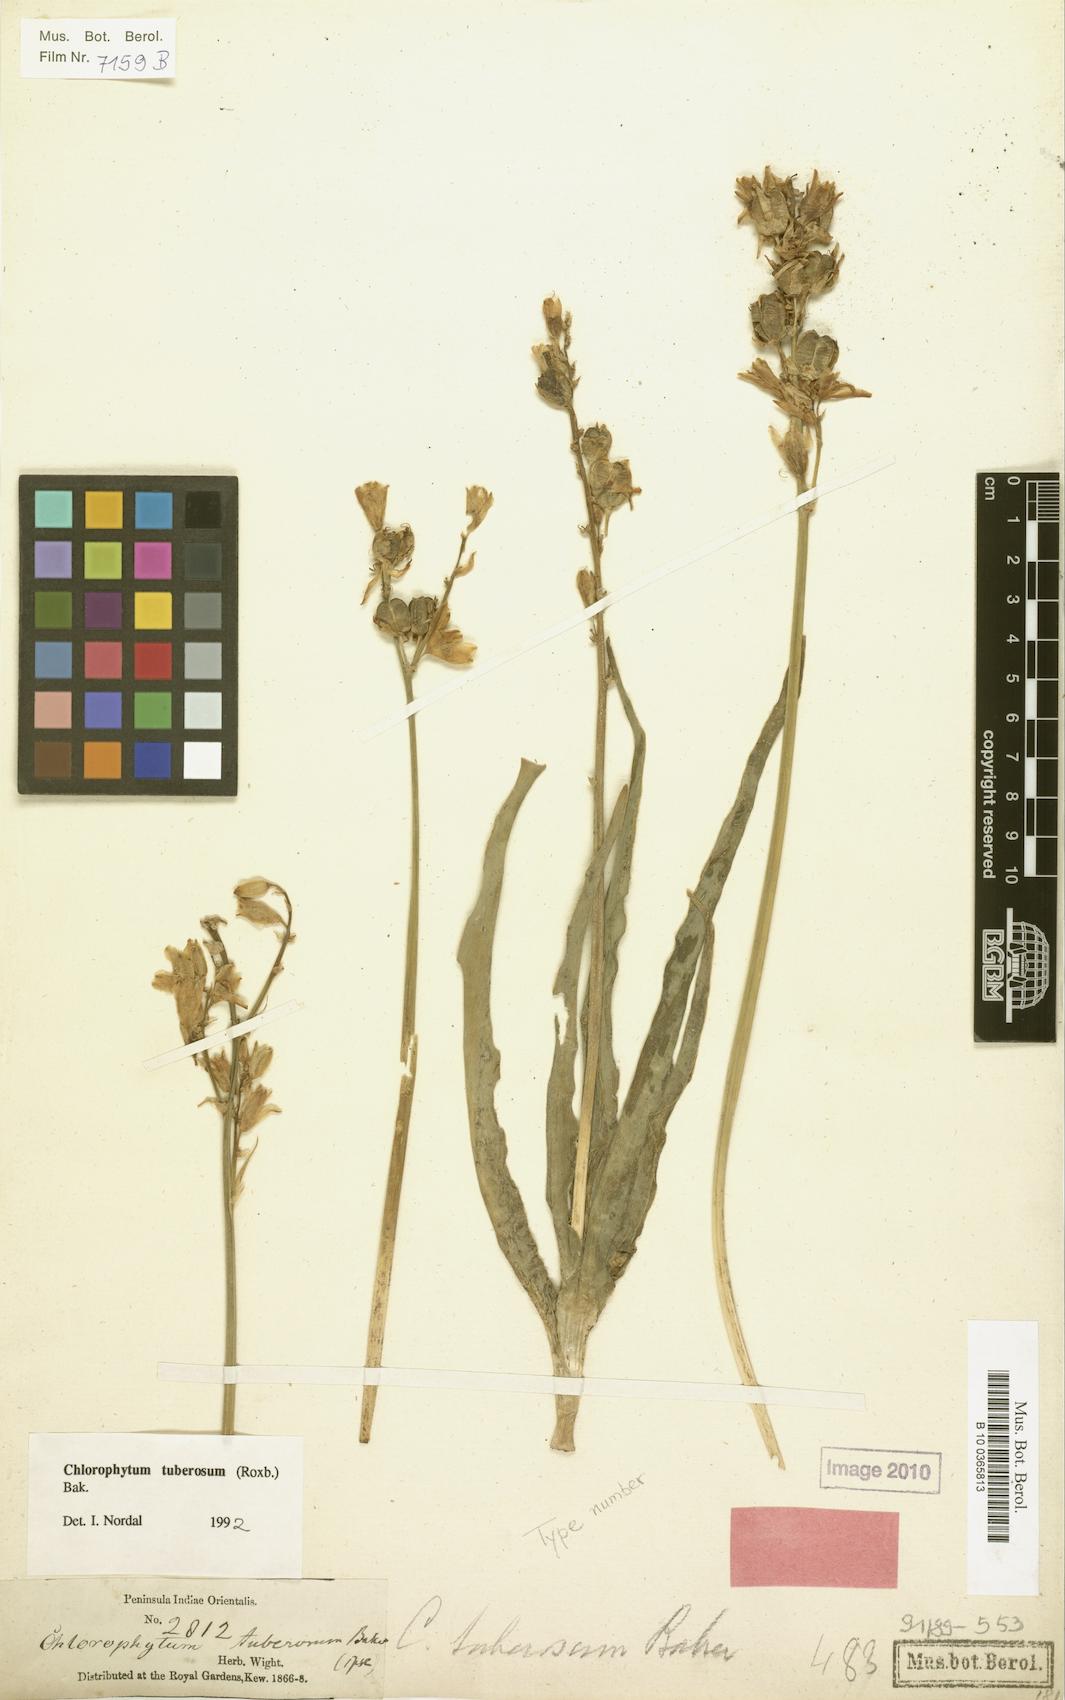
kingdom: Plantae
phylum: Tracheophyta
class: Liliopsida
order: Asparagales
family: Asparagaceae
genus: Chlorophytum
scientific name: Chlorophytum tuberosum
